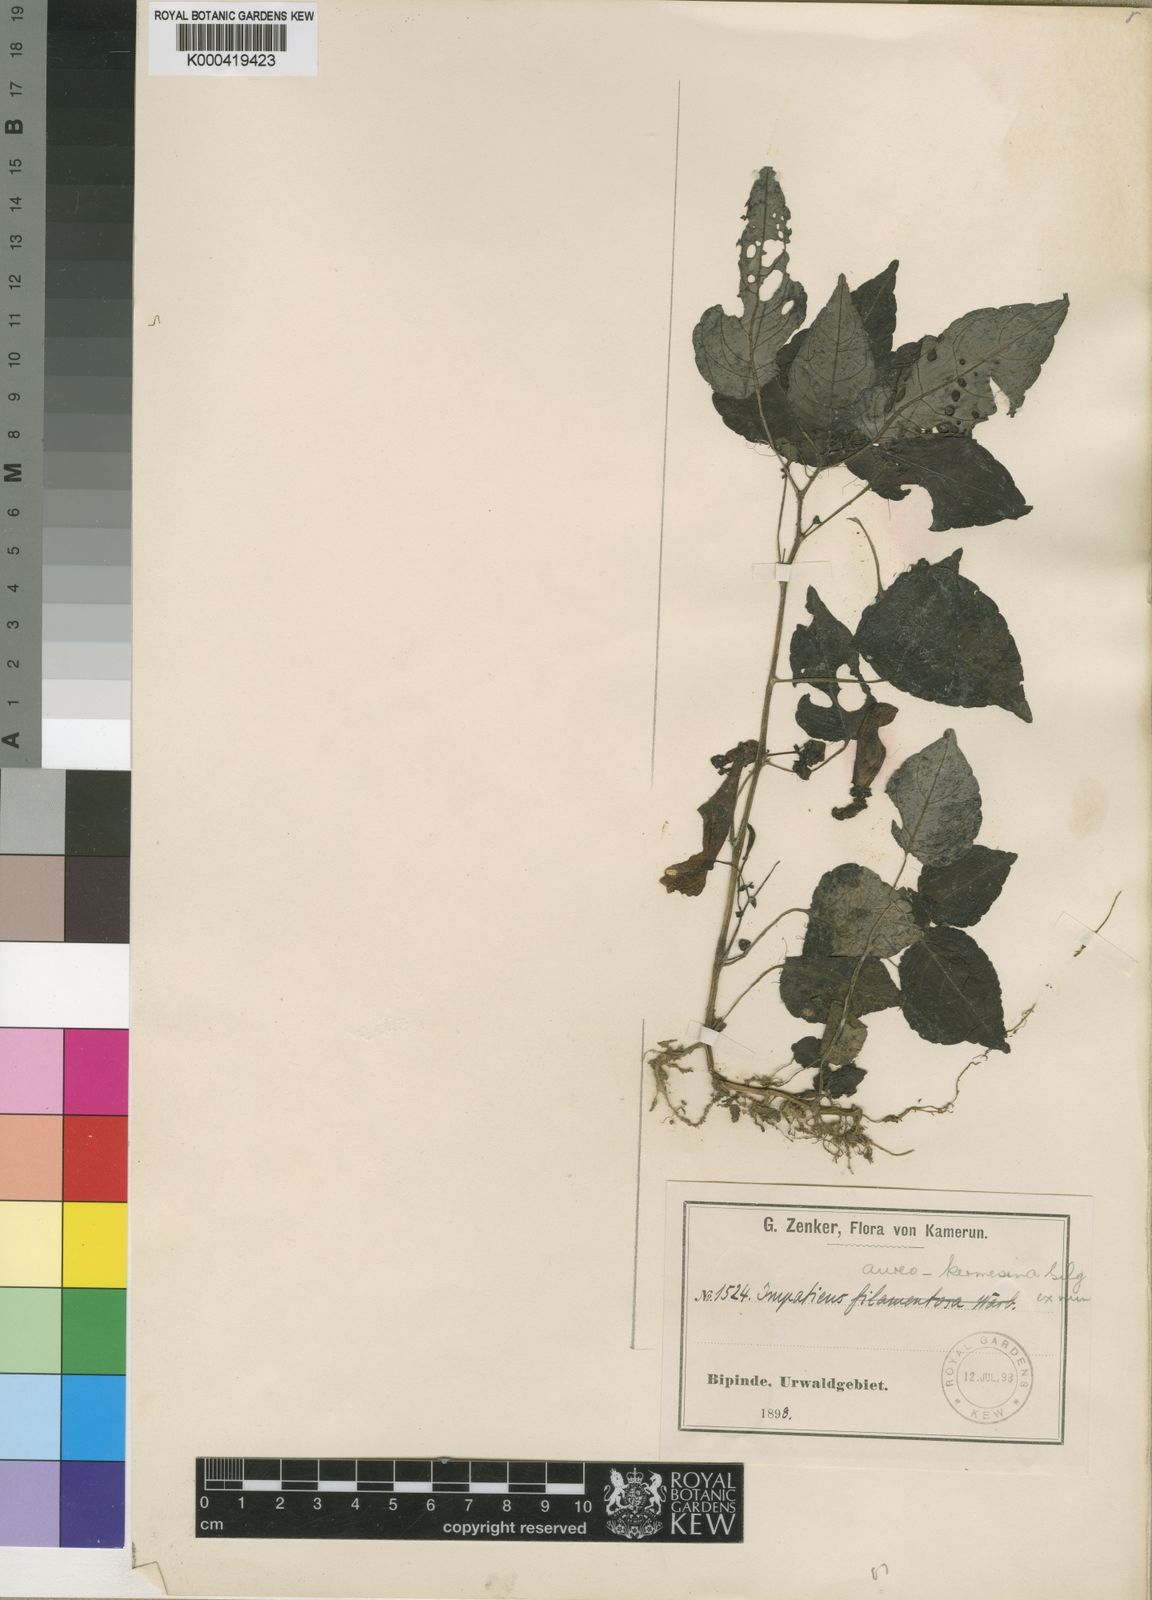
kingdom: Plantae
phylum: Tracheophyta
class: Magnoliopsida
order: Ericales
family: Balsaminaceae
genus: Impatiens
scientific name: Impatiens hians
